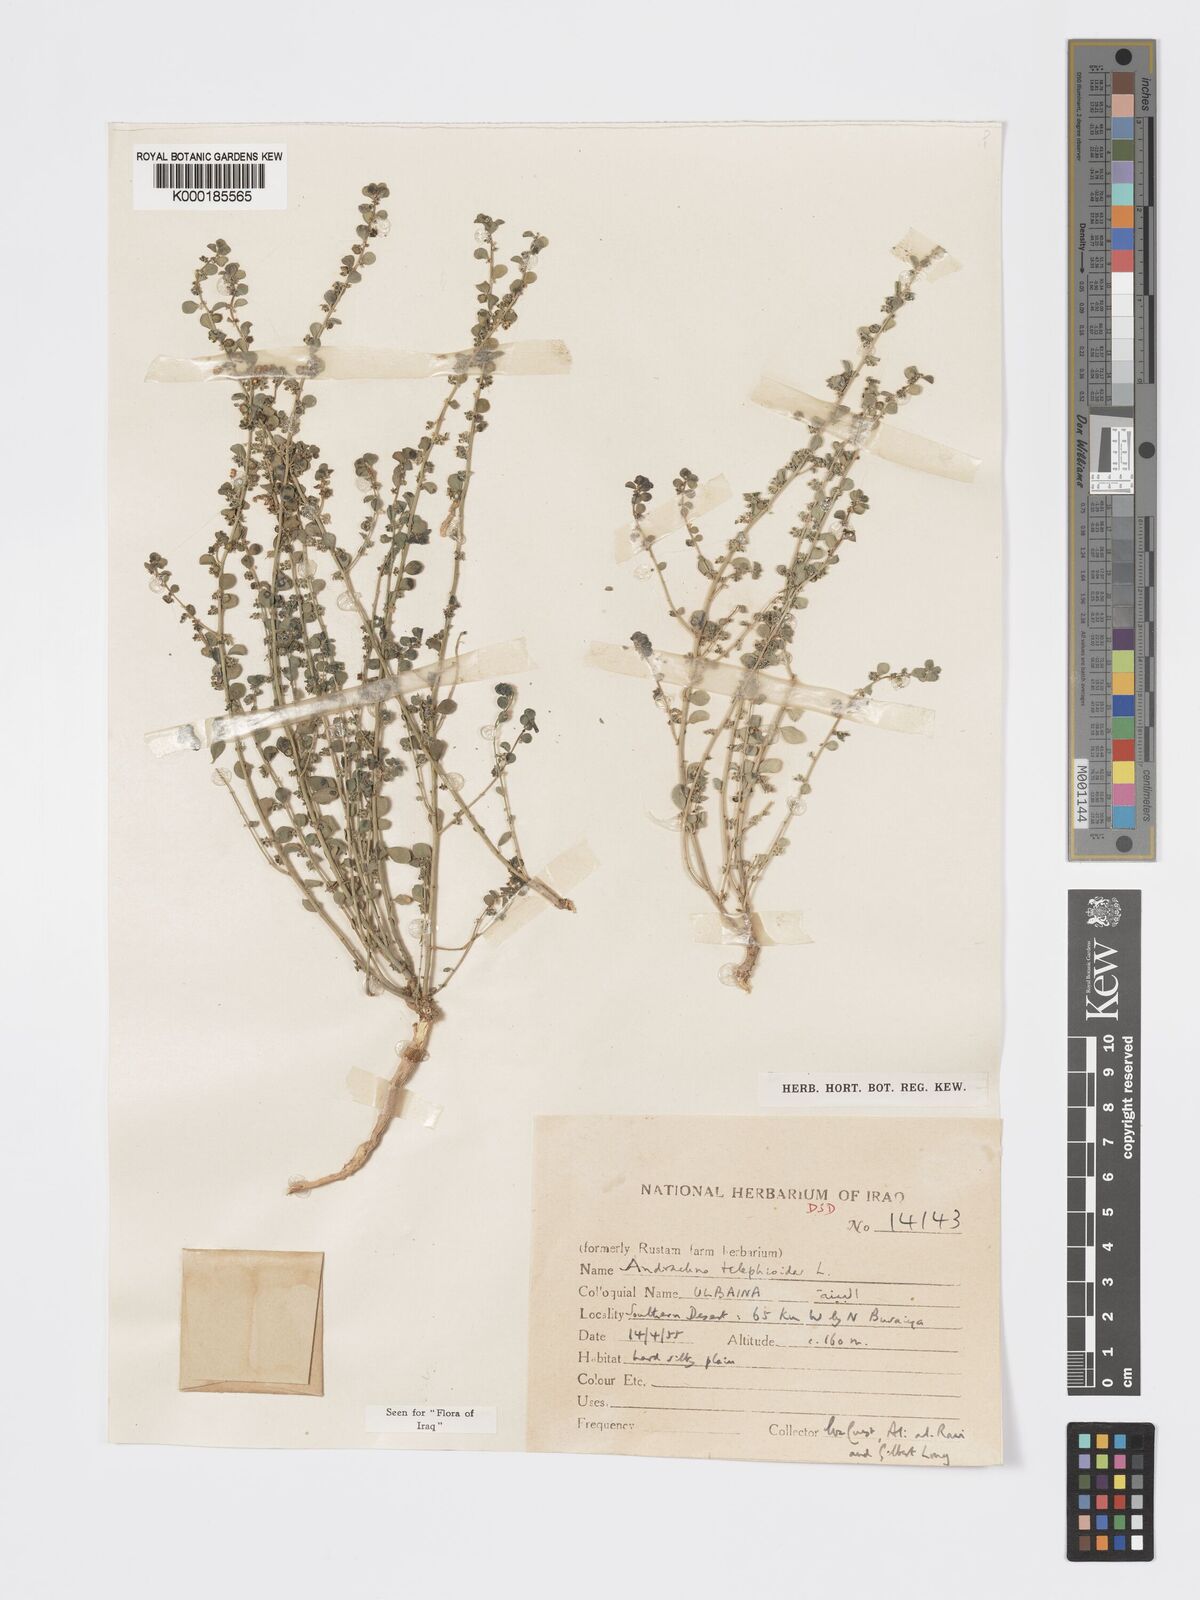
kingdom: Plantae
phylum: Tracheophyta
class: Magnoliopsida
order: Malpighiales
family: Phyllanthaceae
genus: Andrachne
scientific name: Andrachne telephioides
